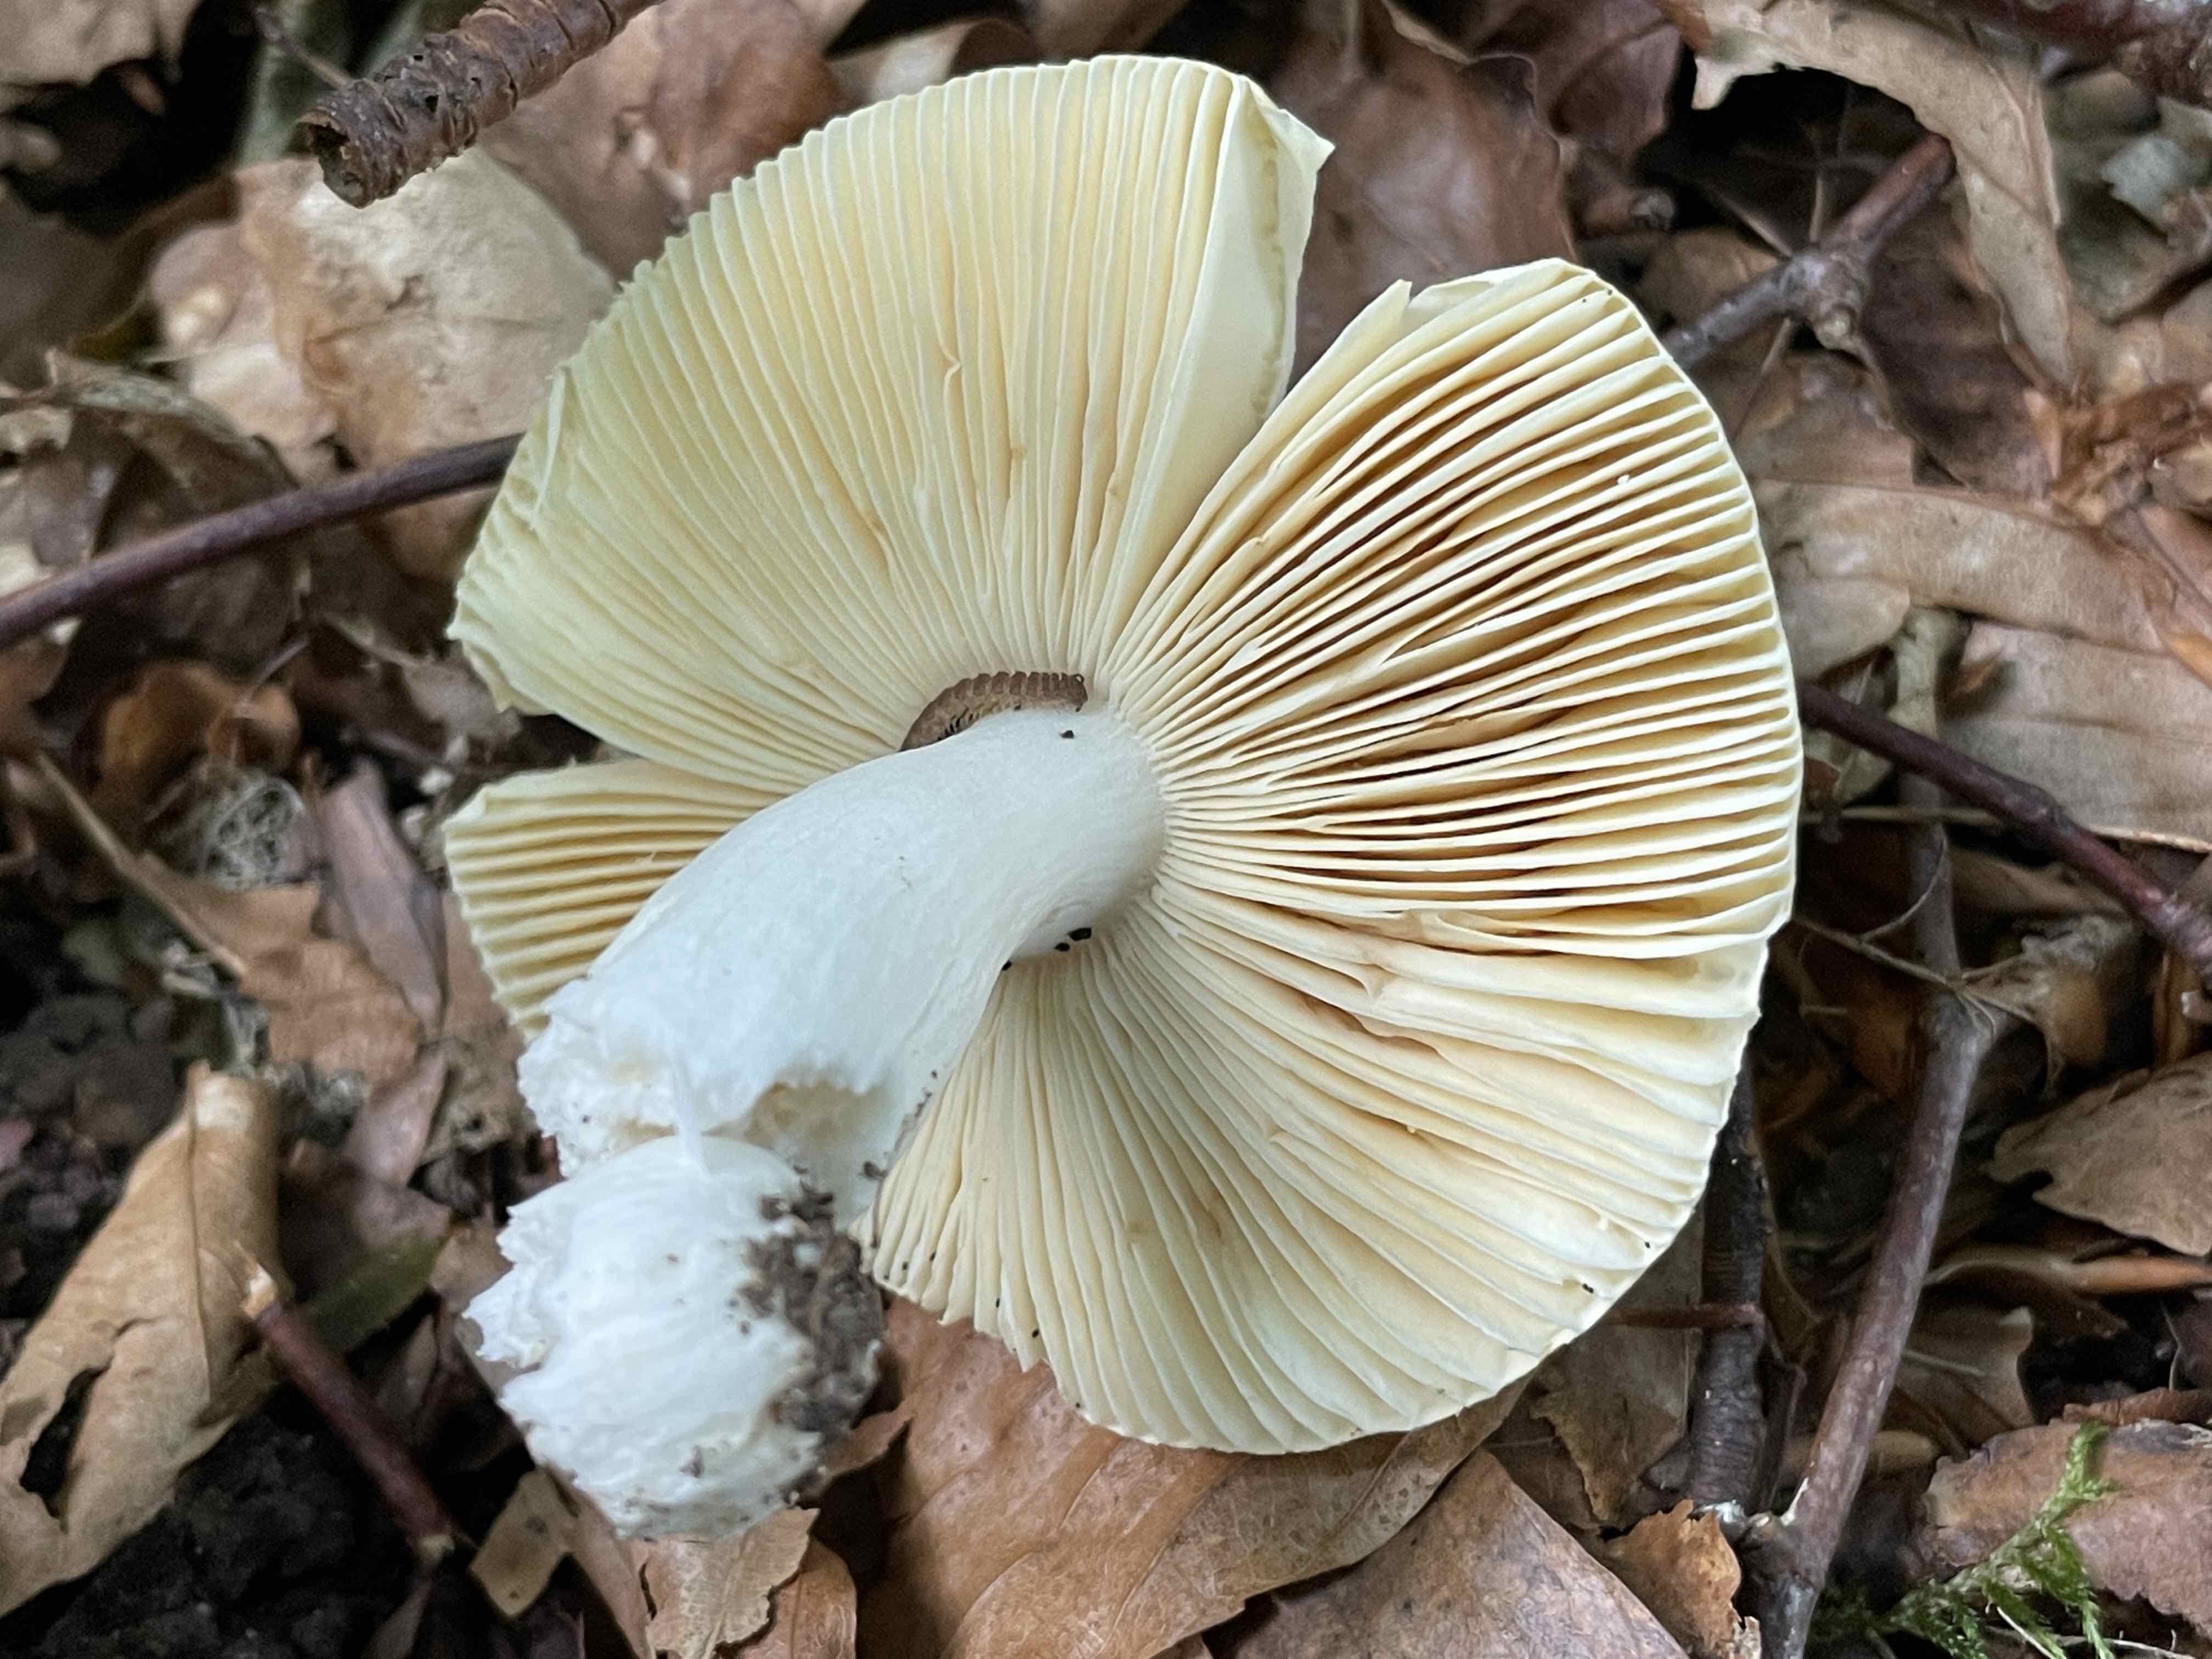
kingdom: Fungi
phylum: Basidiomycota
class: Agaricomycetes
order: Russulales
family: Russulaceae
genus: Russula
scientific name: Russula
